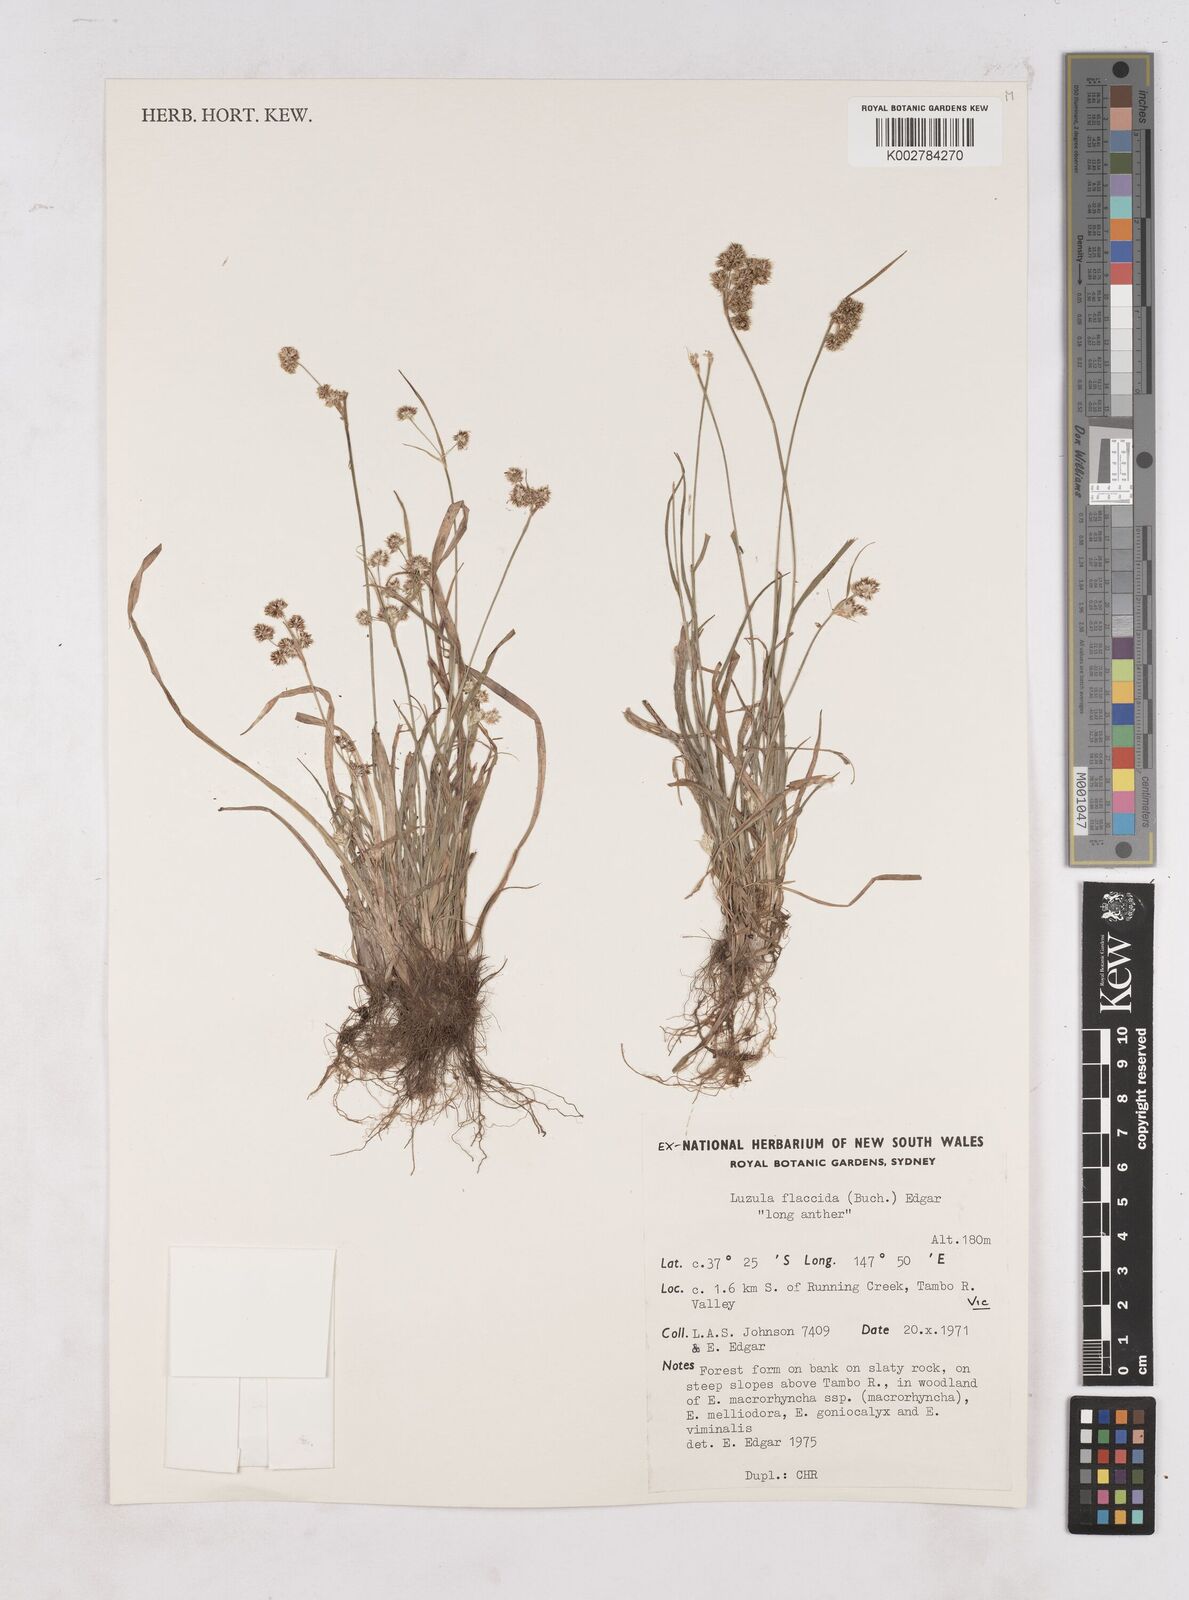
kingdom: Plantae
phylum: Tracheophyta
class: Liliopsida
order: Poales
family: Juncaceae
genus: Luzula
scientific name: Luzula flaccida
